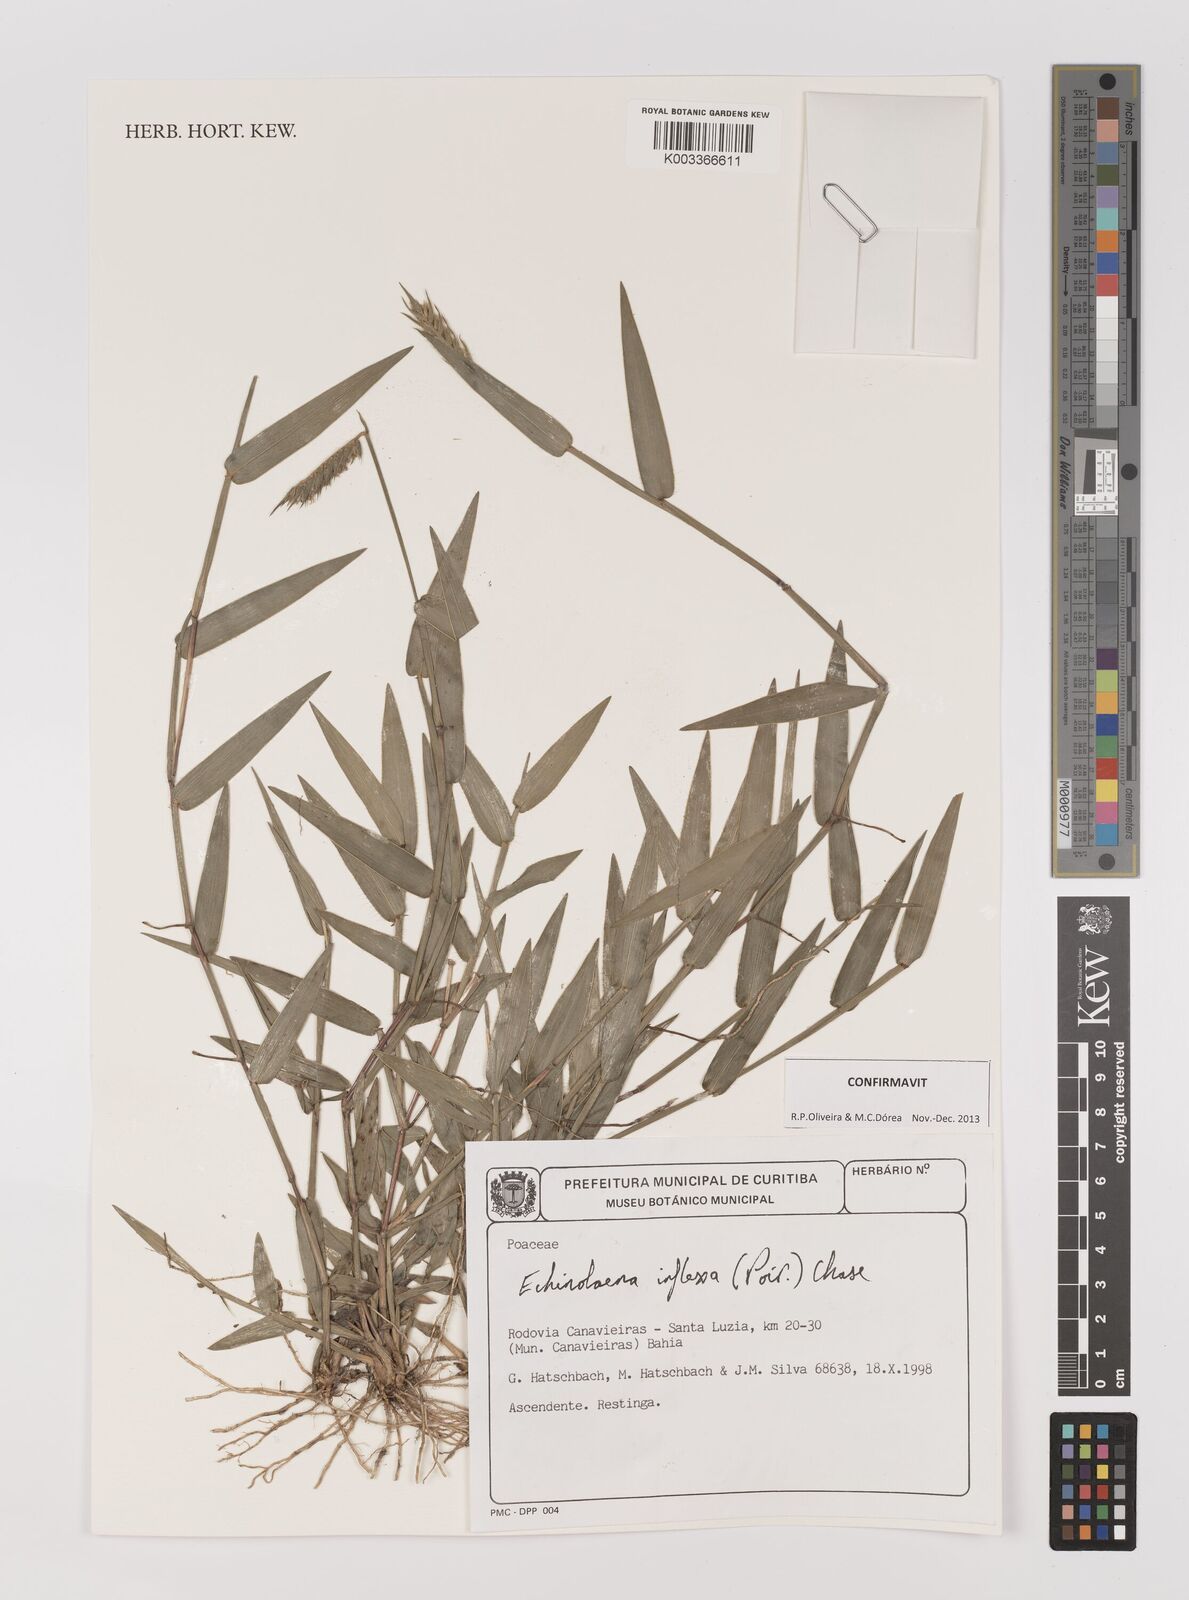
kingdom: Plantae
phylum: Tracheophyta
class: Liliopsida
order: Poales
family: Poaceae
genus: Echinolaena
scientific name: Echinolaena inflexa
